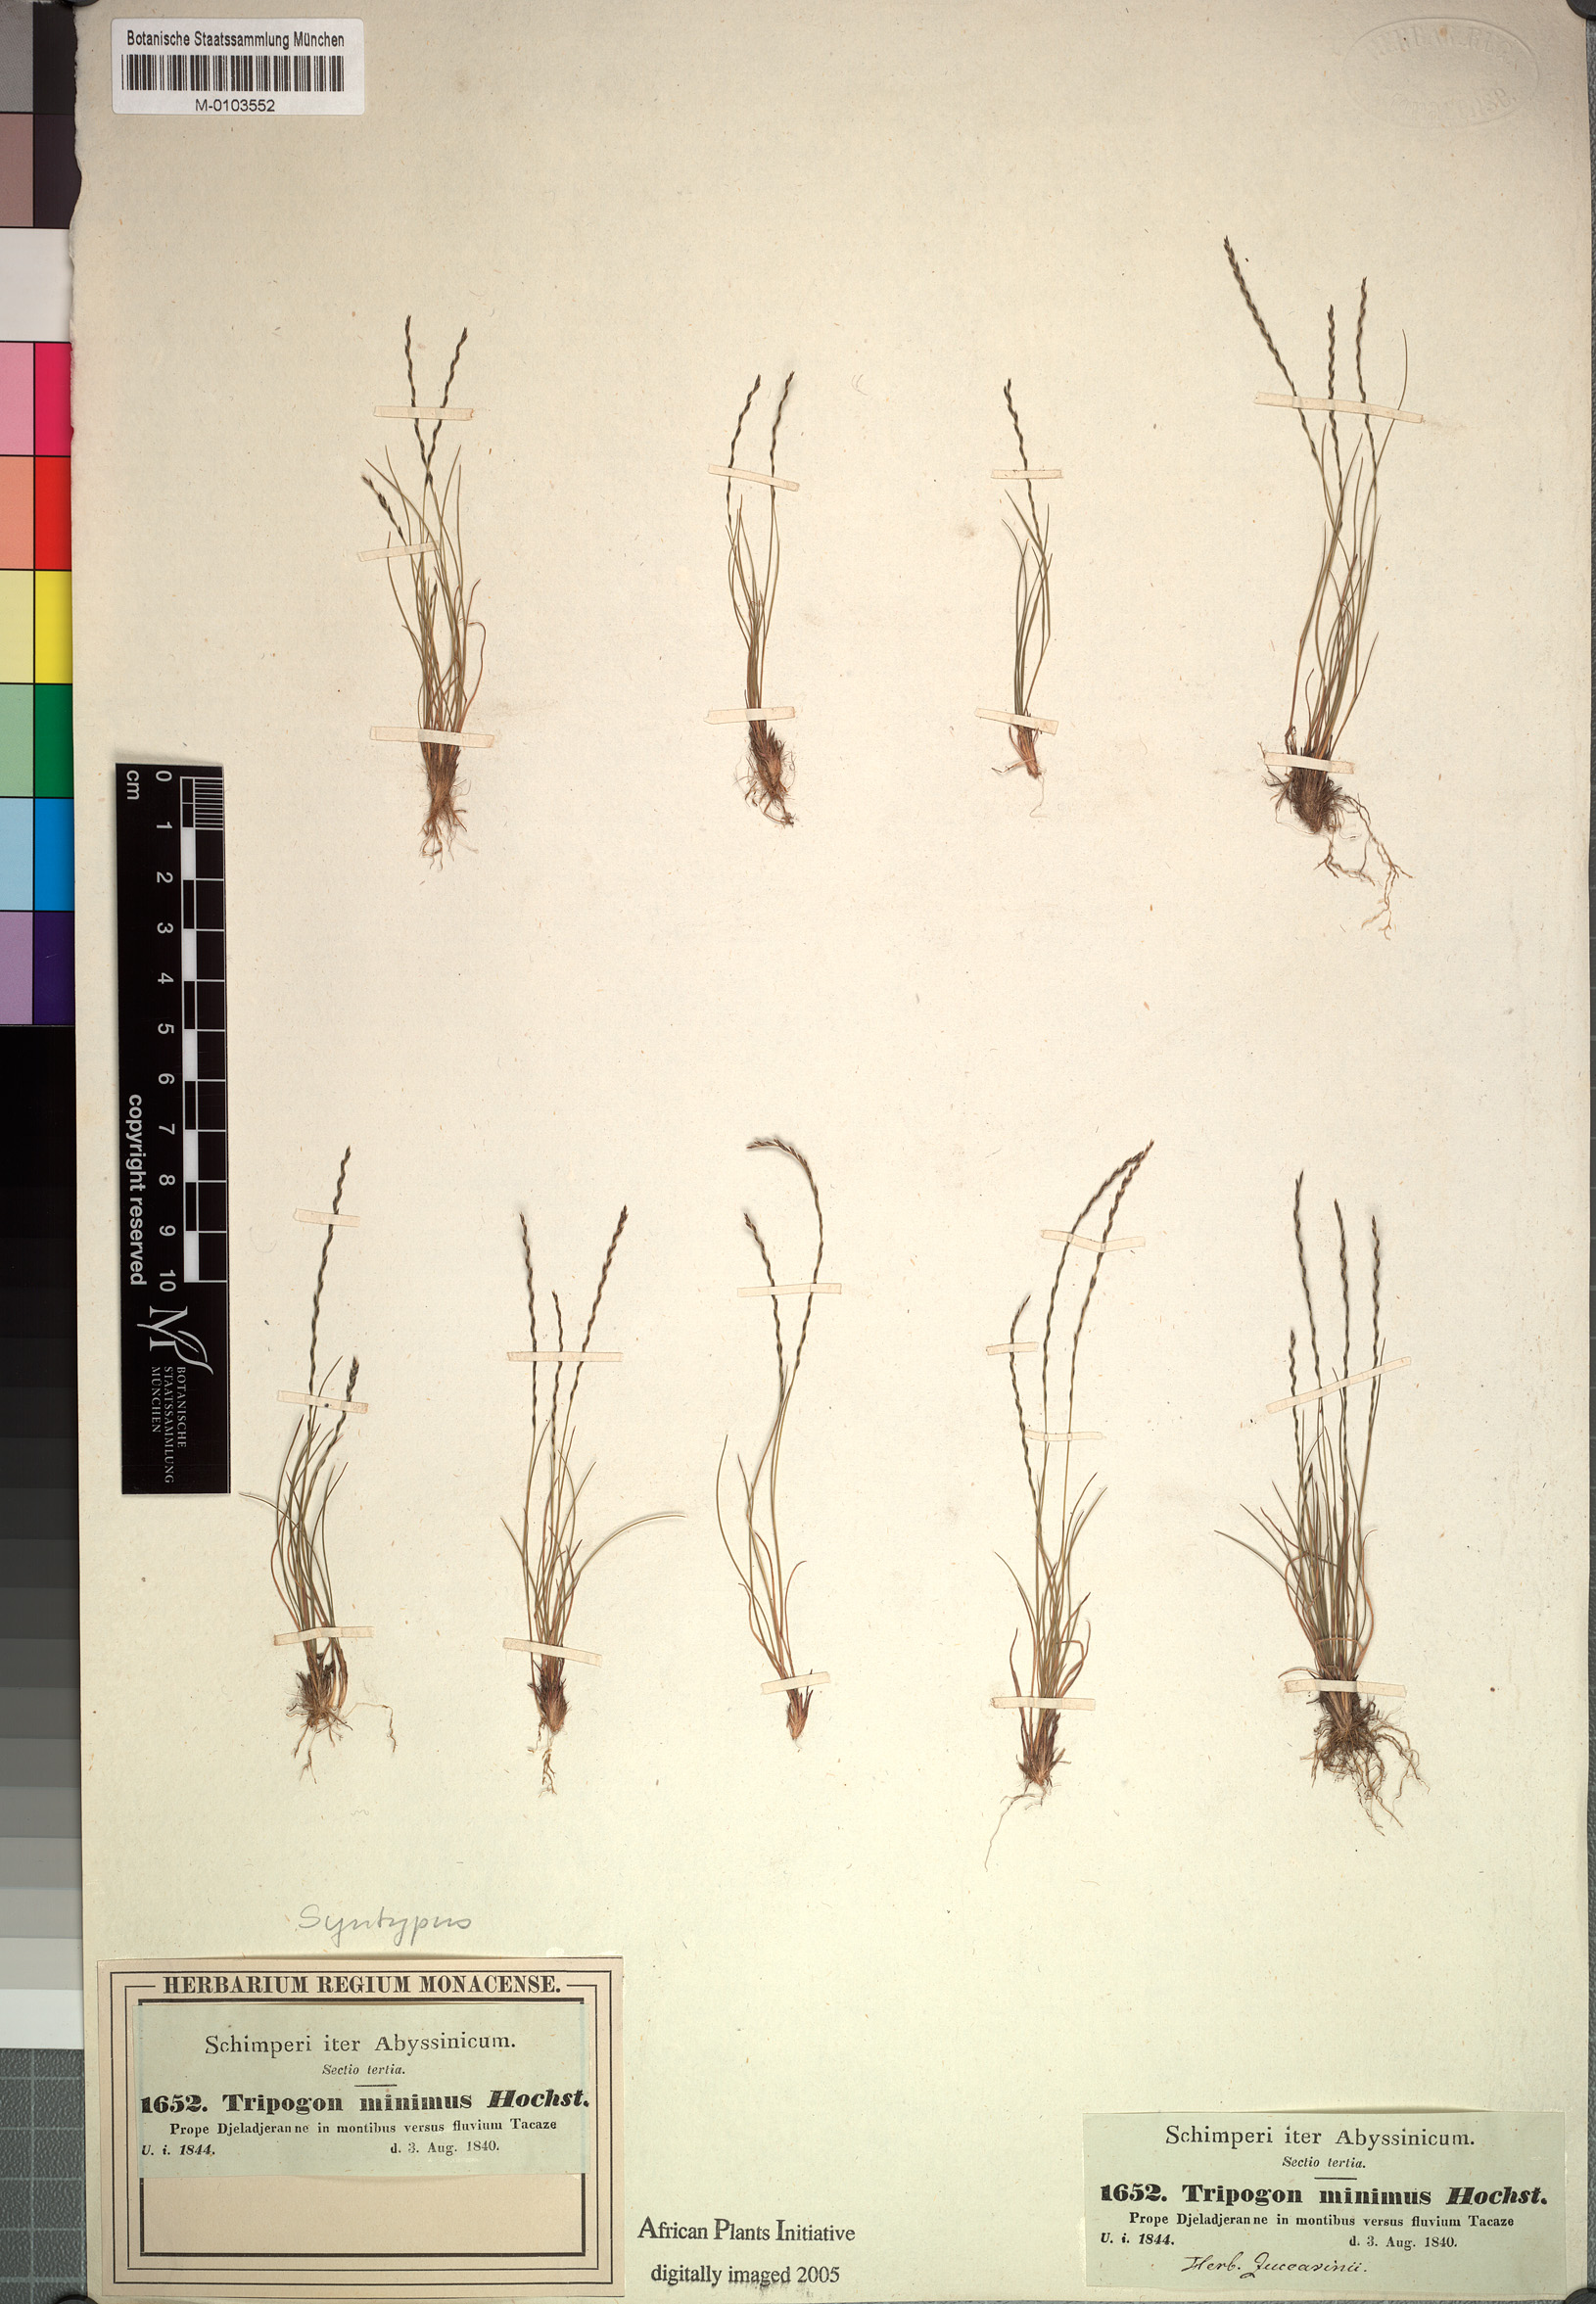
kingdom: Plantae
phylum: Tracheophyta
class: Liliopsida
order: Poales
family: Poaceae
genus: Tripogonella
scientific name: Tripogonella minima
